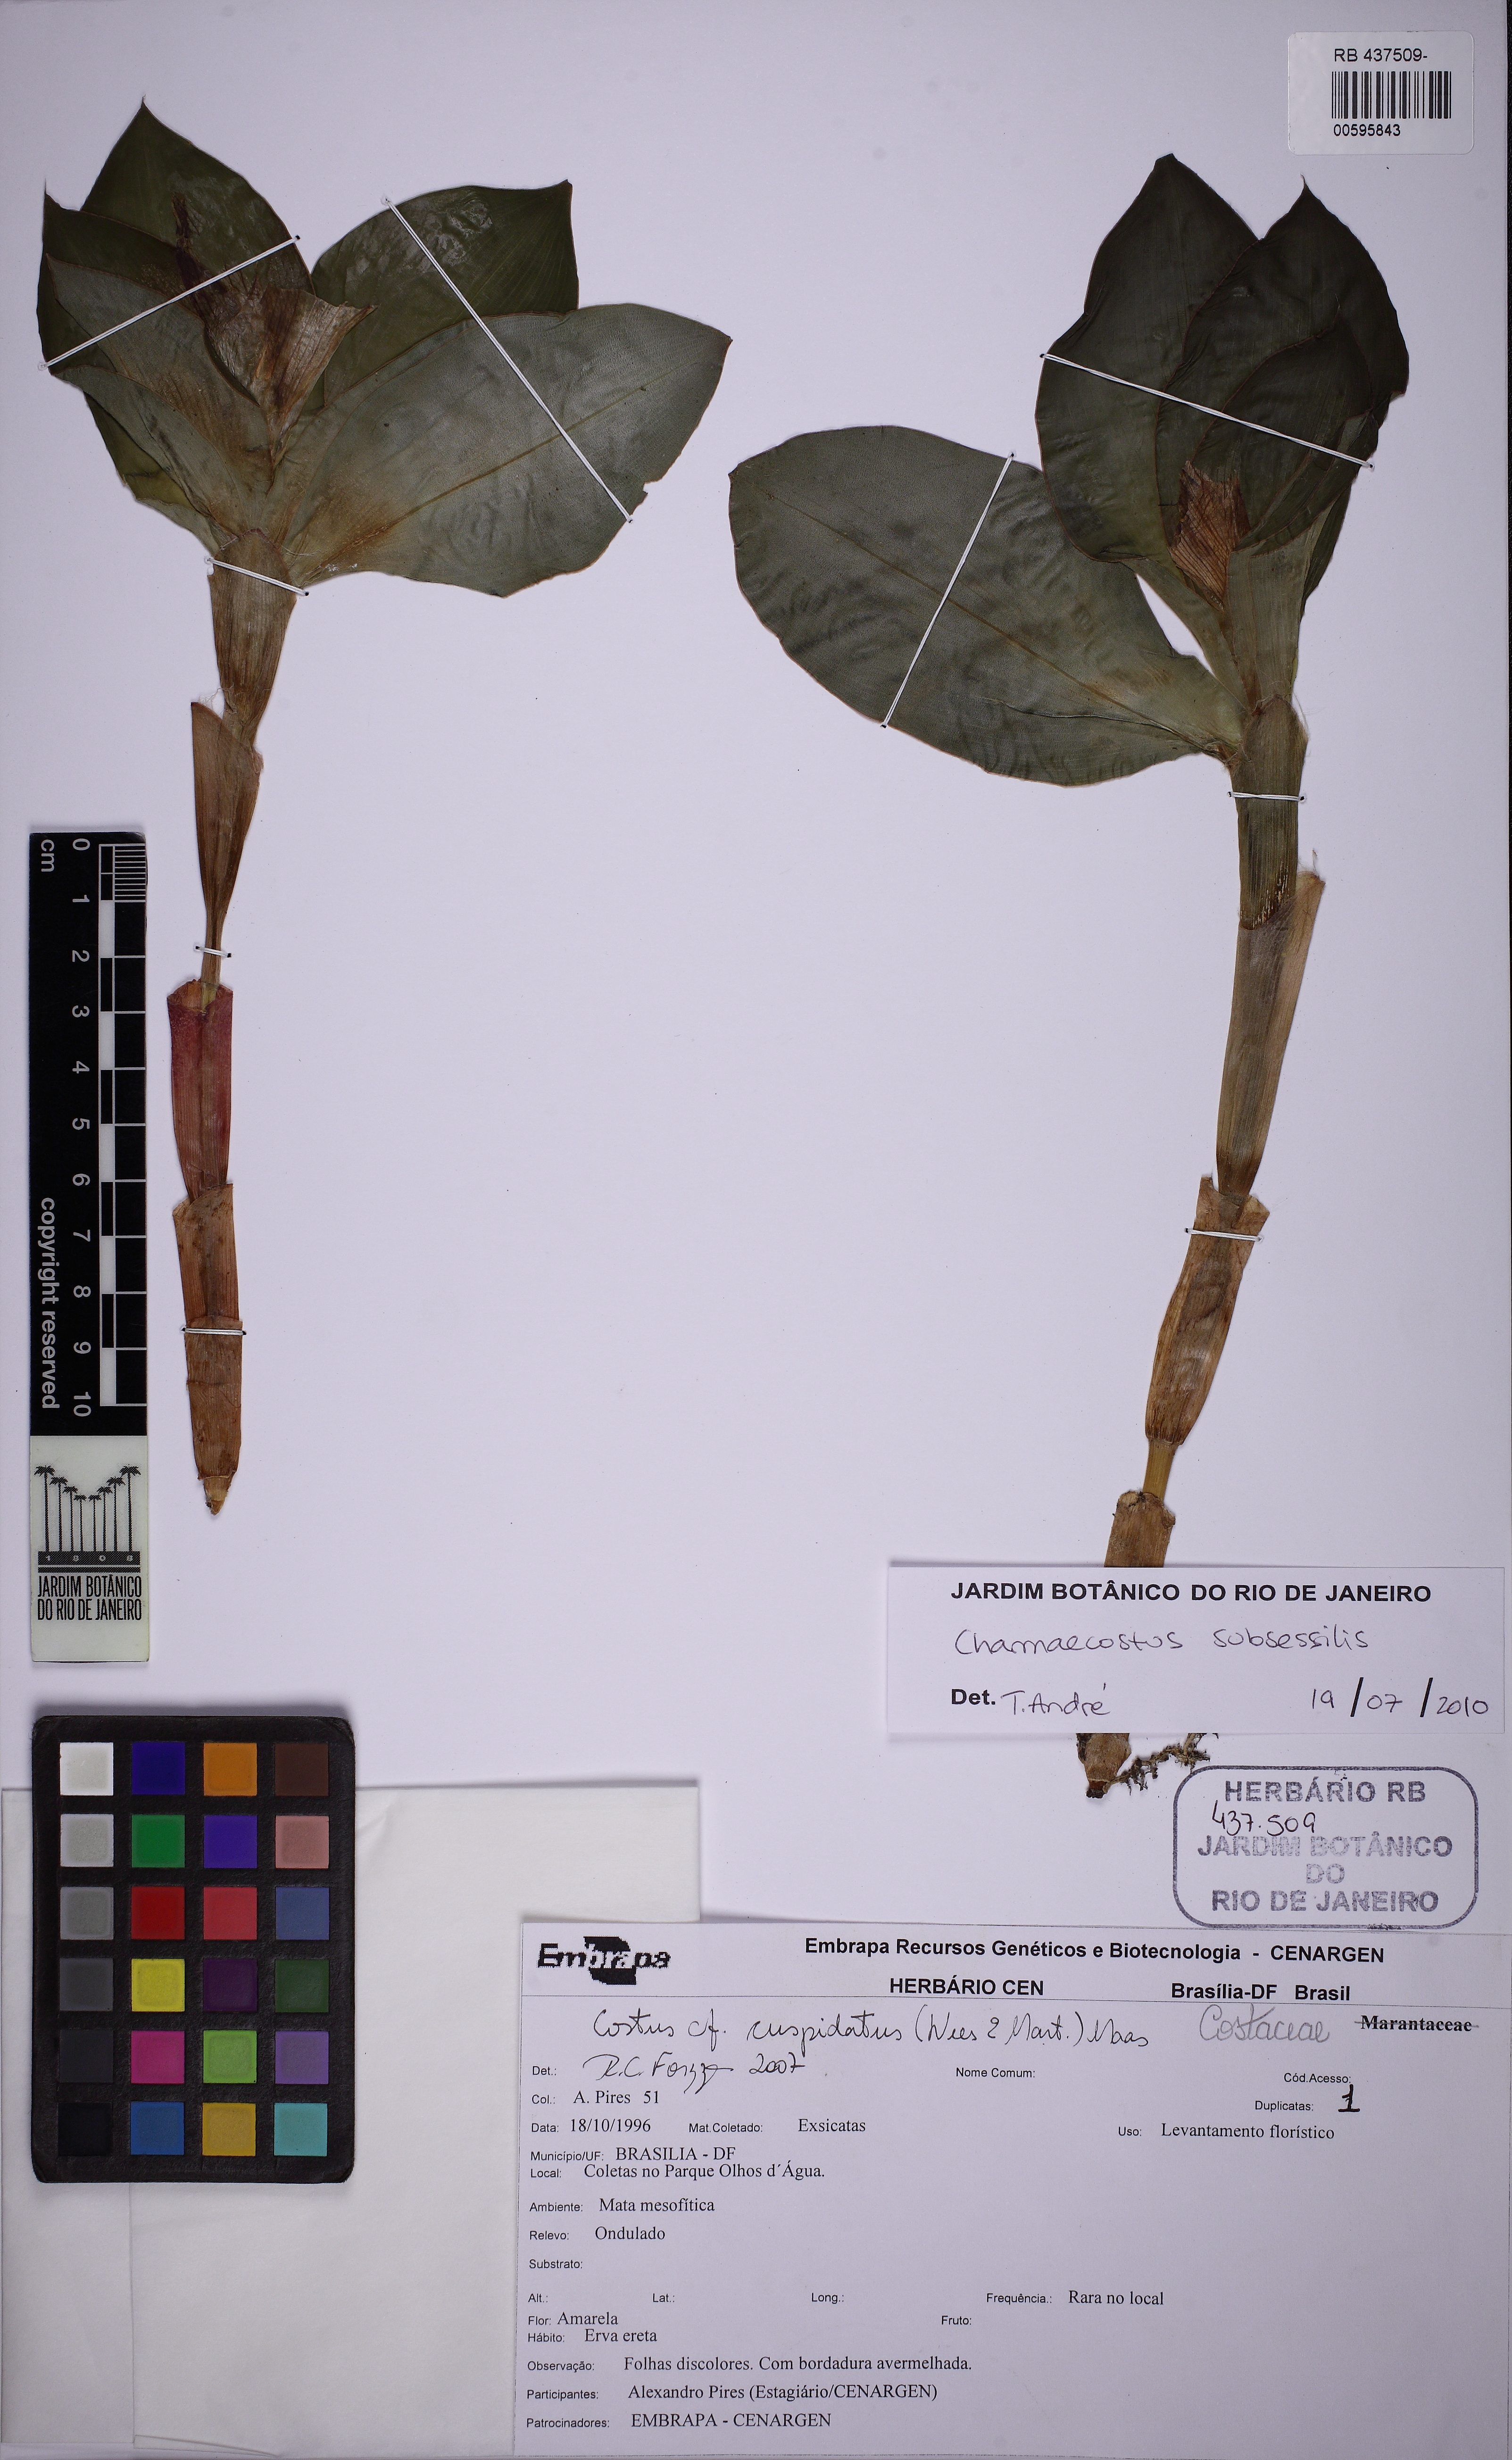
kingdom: Plantae
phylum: Tracheophyta
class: Liliopsida
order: Zingiberales
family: Costaceae
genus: Chamaecostus
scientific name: Chamaecostus subsessilis
